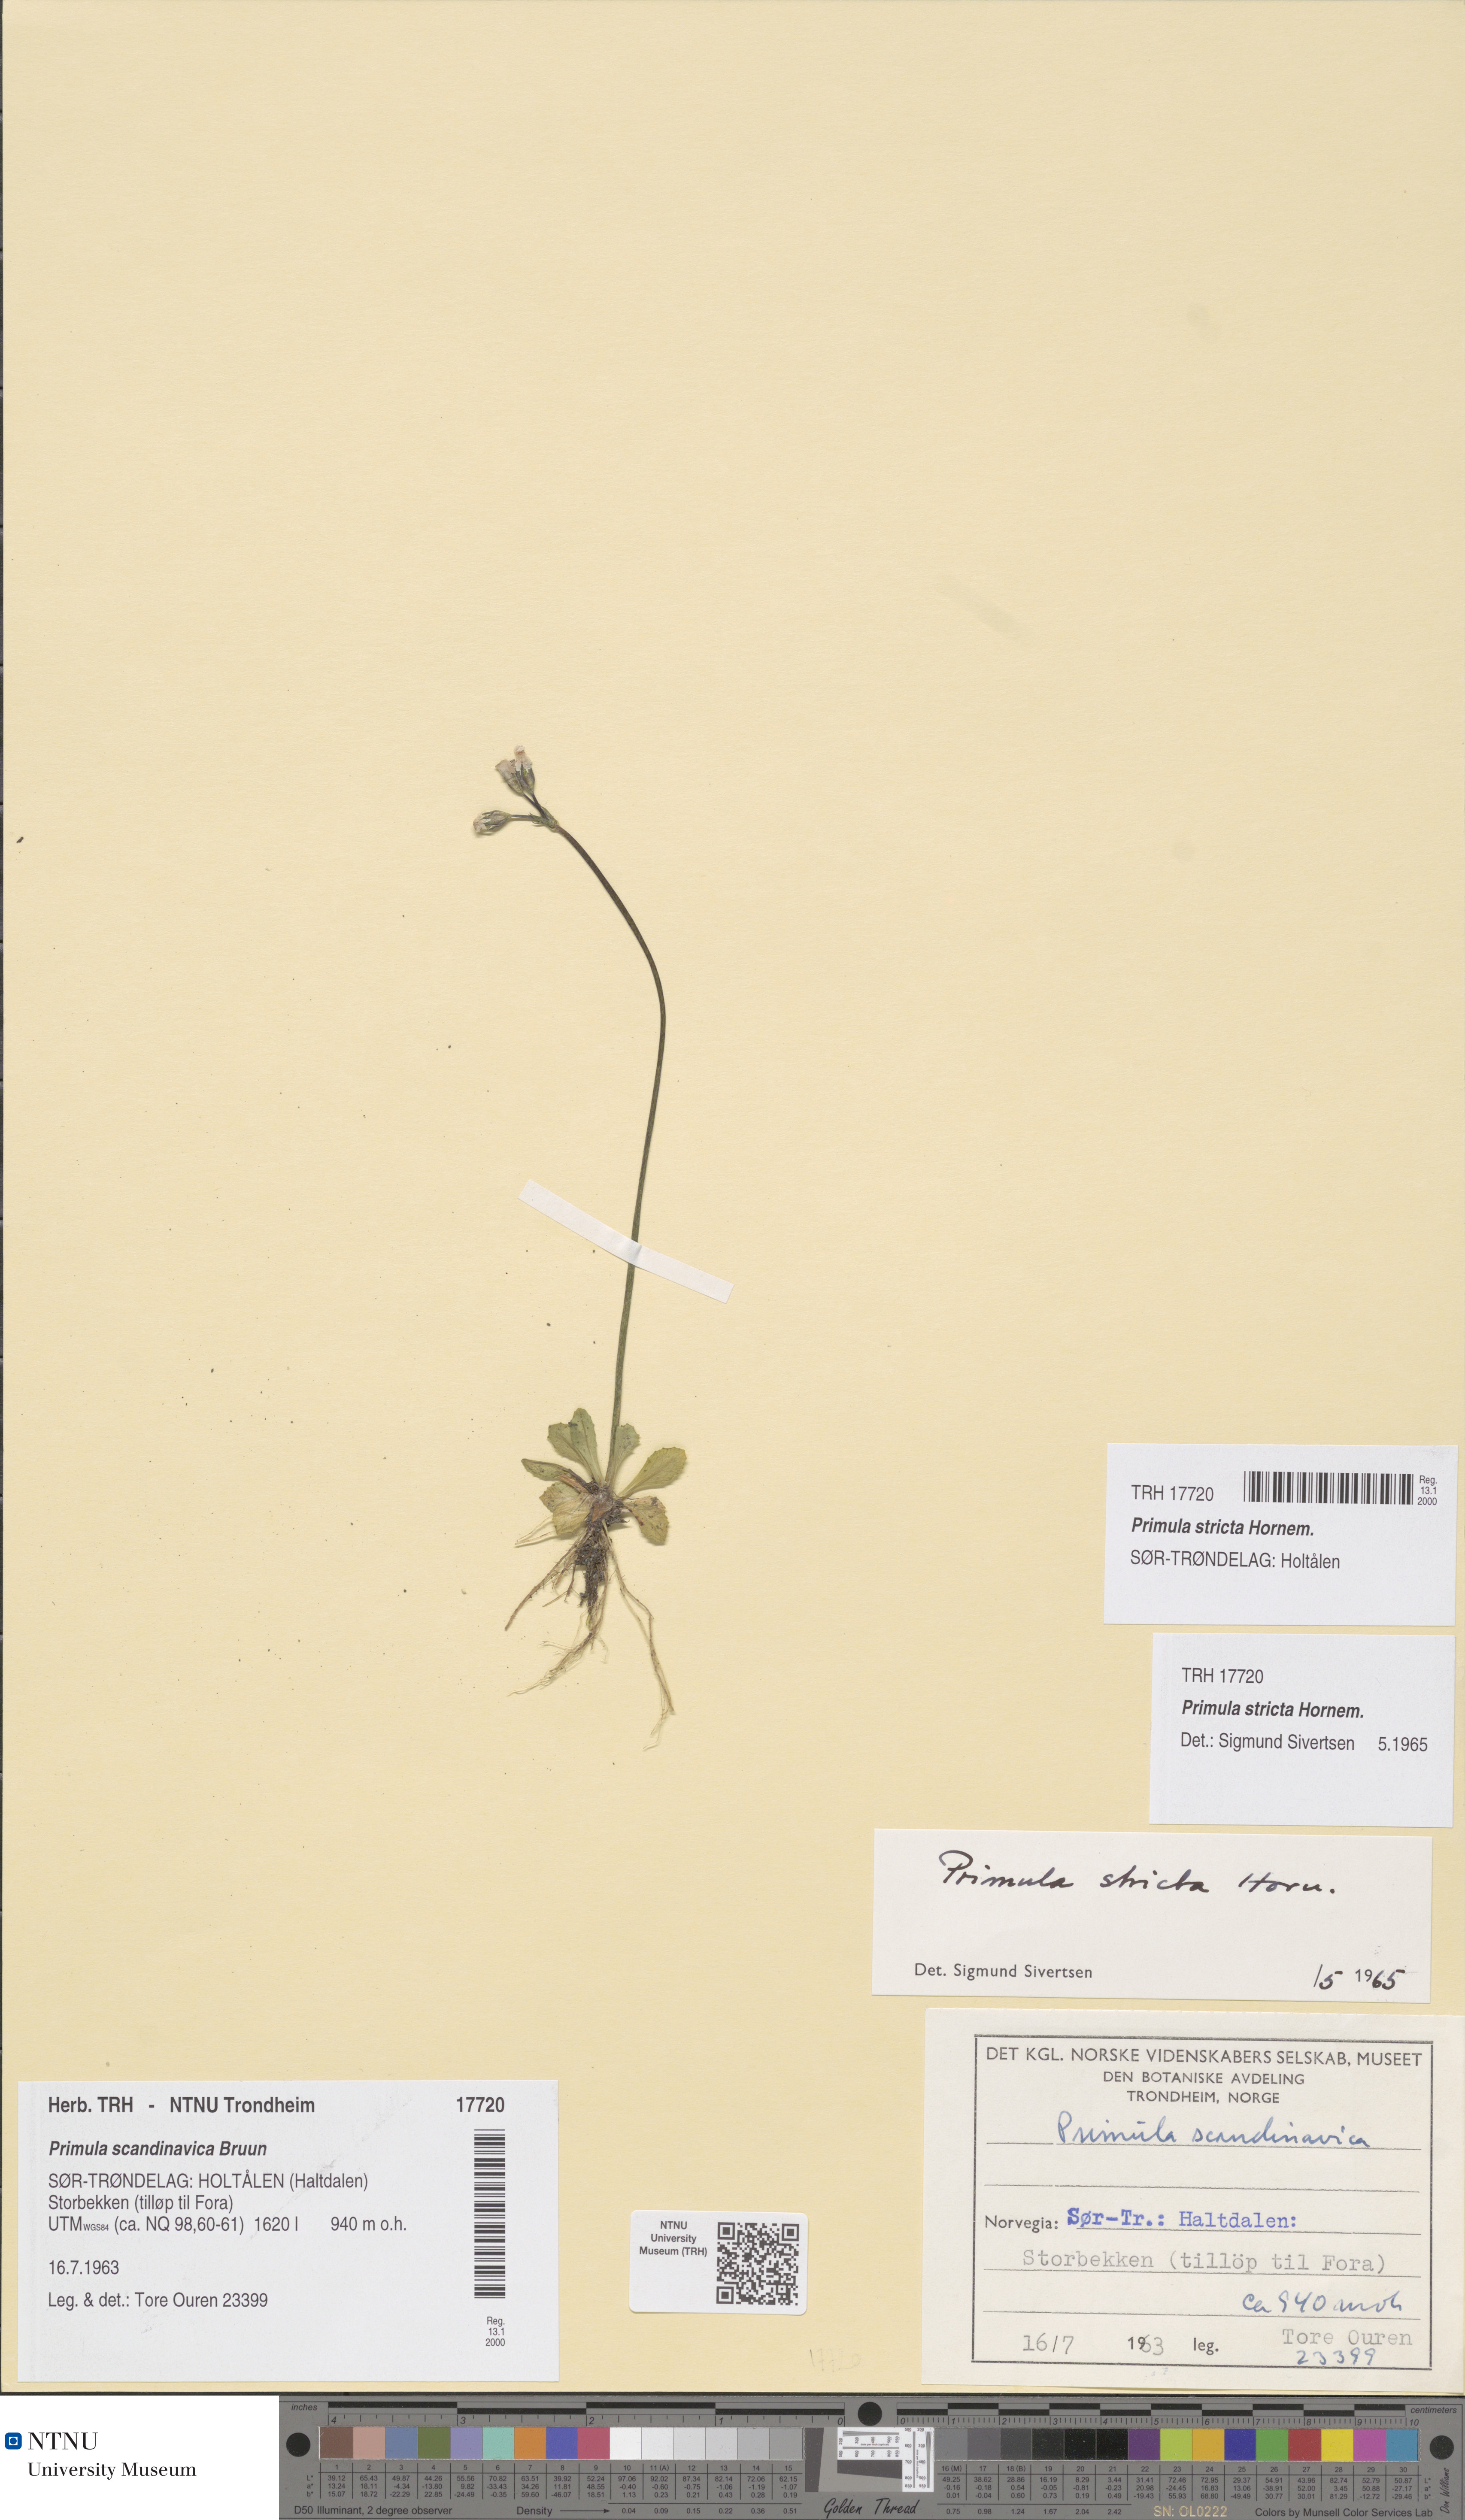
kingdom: Plantae
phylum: Tracheophyta
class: Magnoliopsida
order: Ericales
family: Primulaceae
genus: Primula
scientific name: Primula stricta
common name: Coastal primrose
